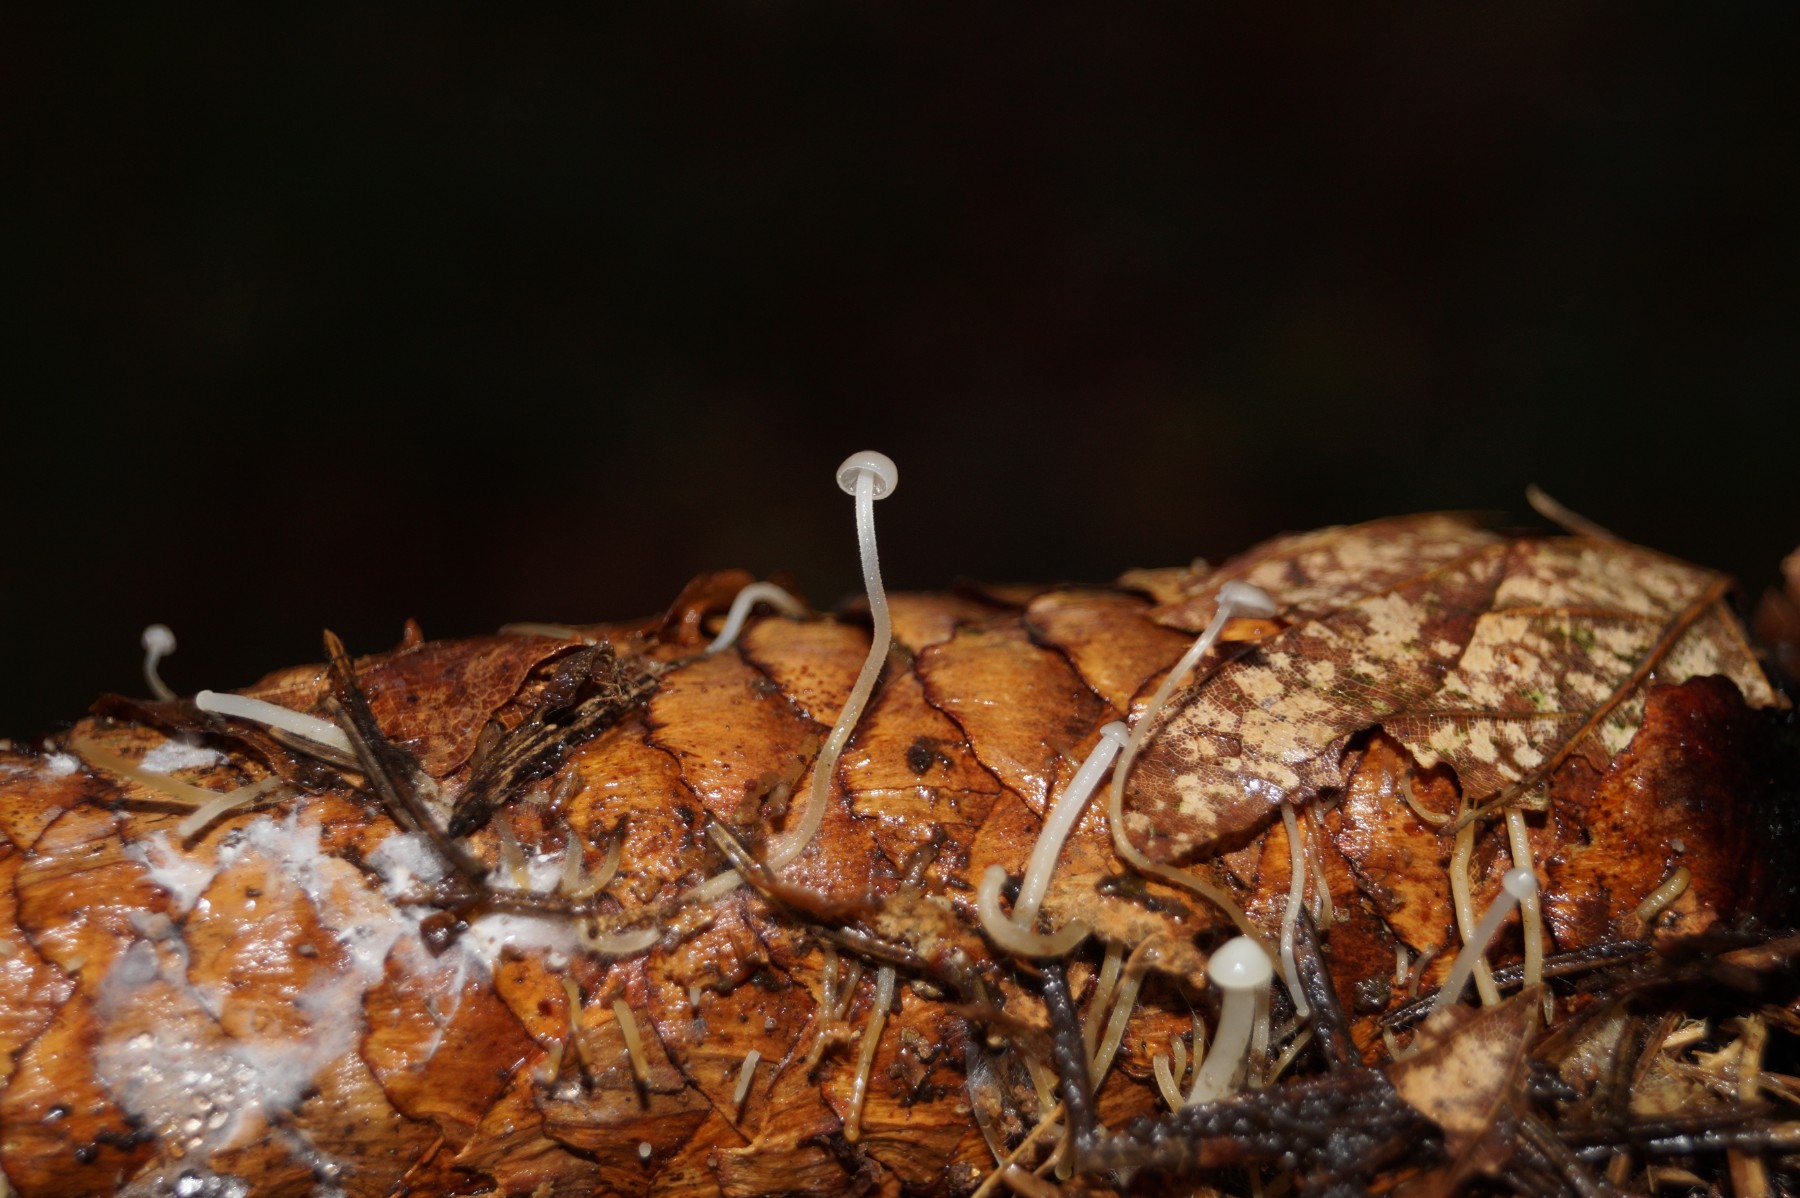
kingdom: Fungi
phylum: Basidiomycota
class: Agaricomycetes
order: Agaricales
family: Physalacriaceae
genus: Strobilurus
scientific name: Strobilurus esculentus
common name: gran-koglehat
